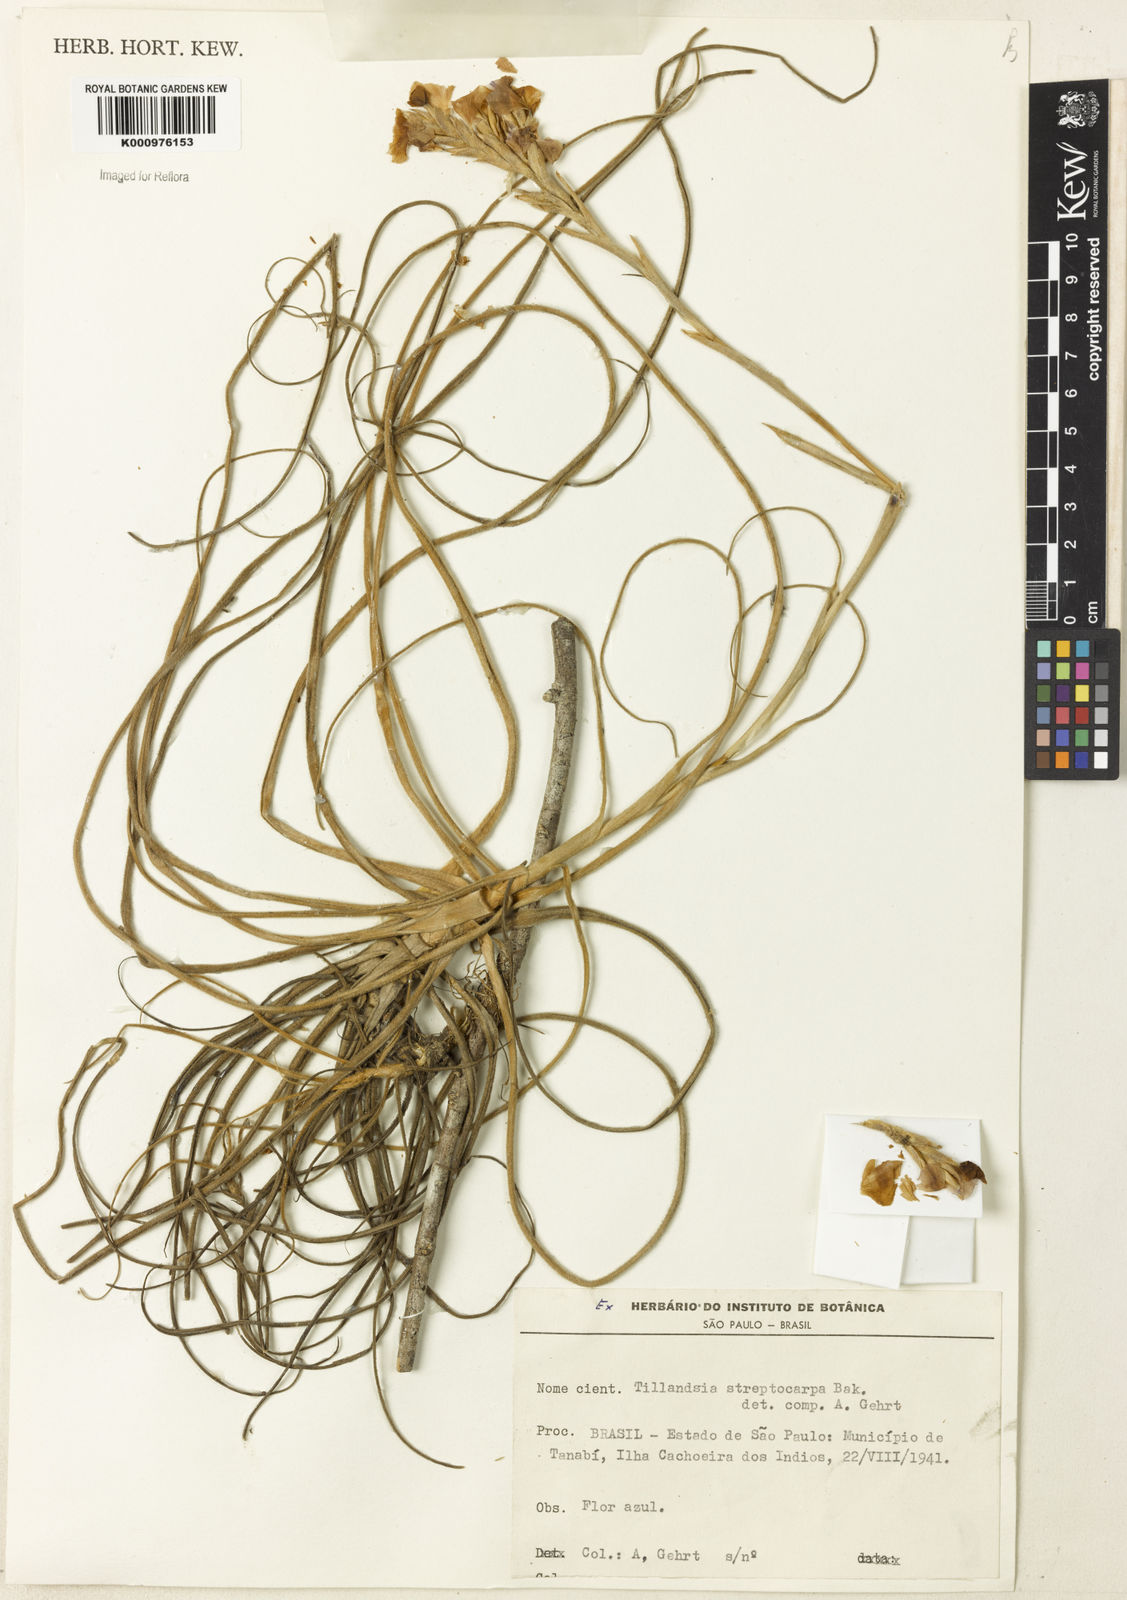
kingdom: Plantae
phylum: Tracheophyta
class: Liliopsida
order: Poales
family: Bromeliaceae
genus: Tillandsia
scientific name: Tillandsia streptocarpa
